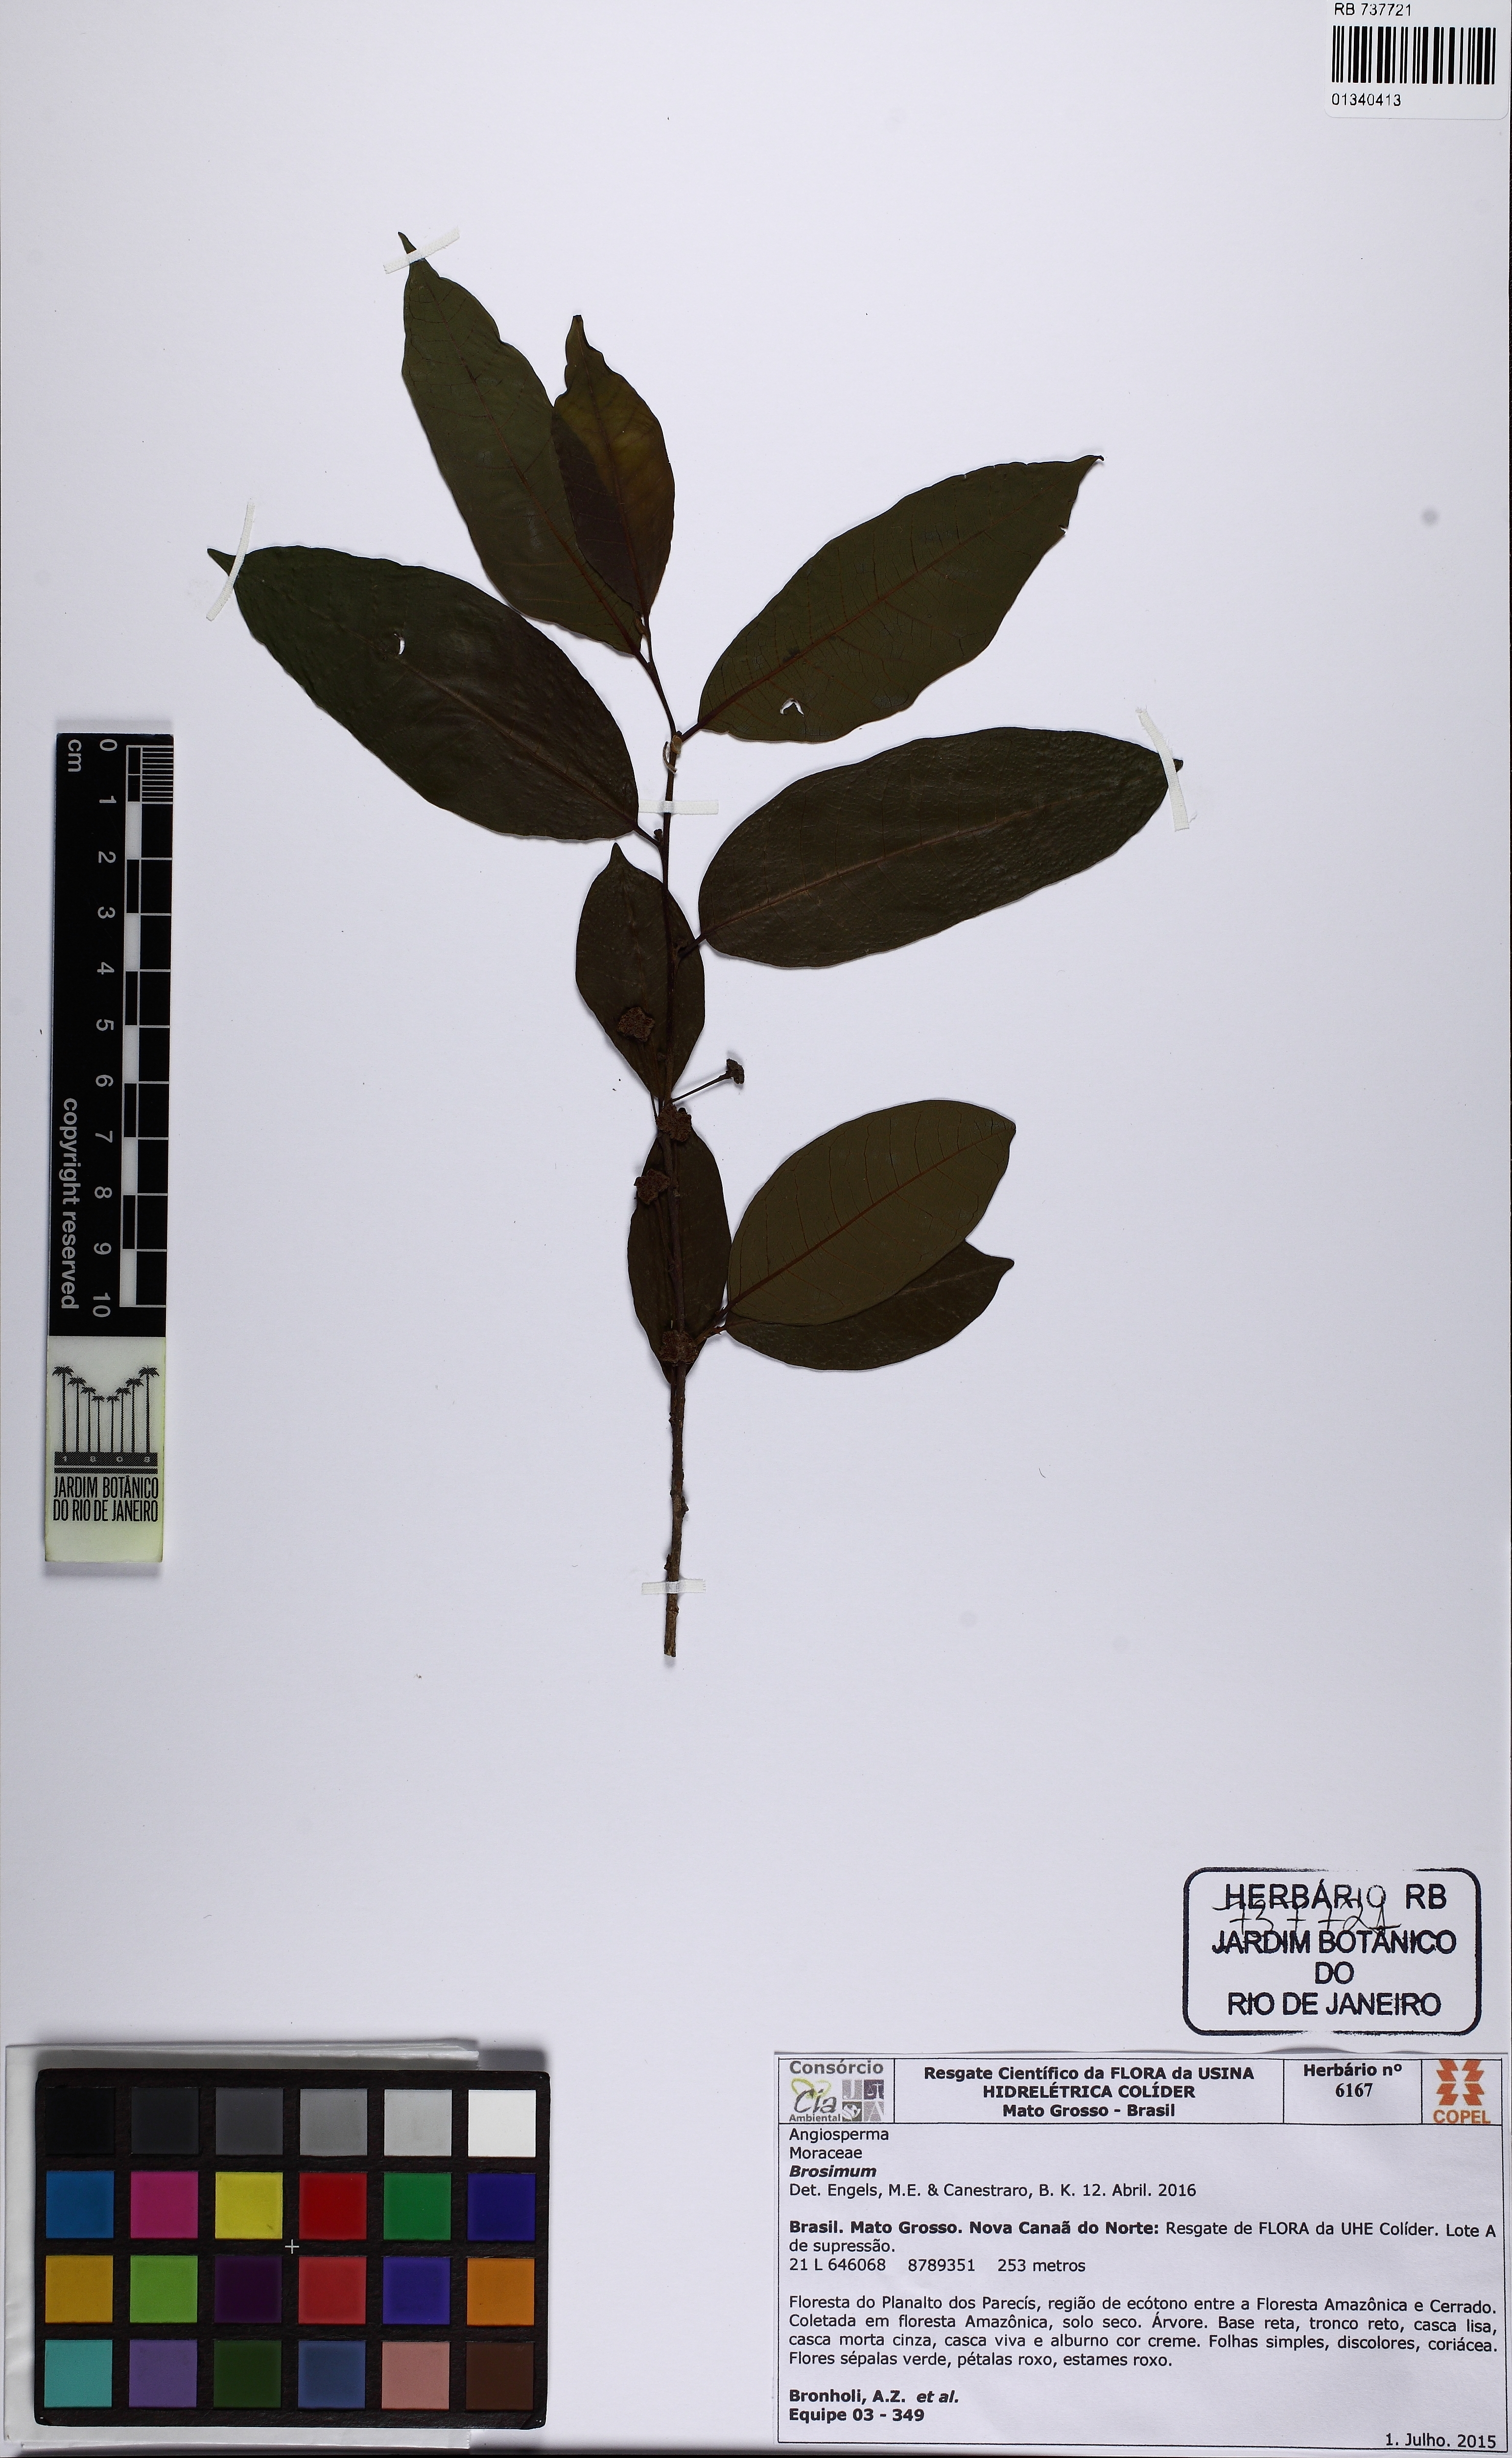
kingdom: Plantae
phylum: Tracheophyta
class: Magnoliopsida
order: Rosales
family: Moraceae
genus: Brosimum
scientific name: Brosimum
